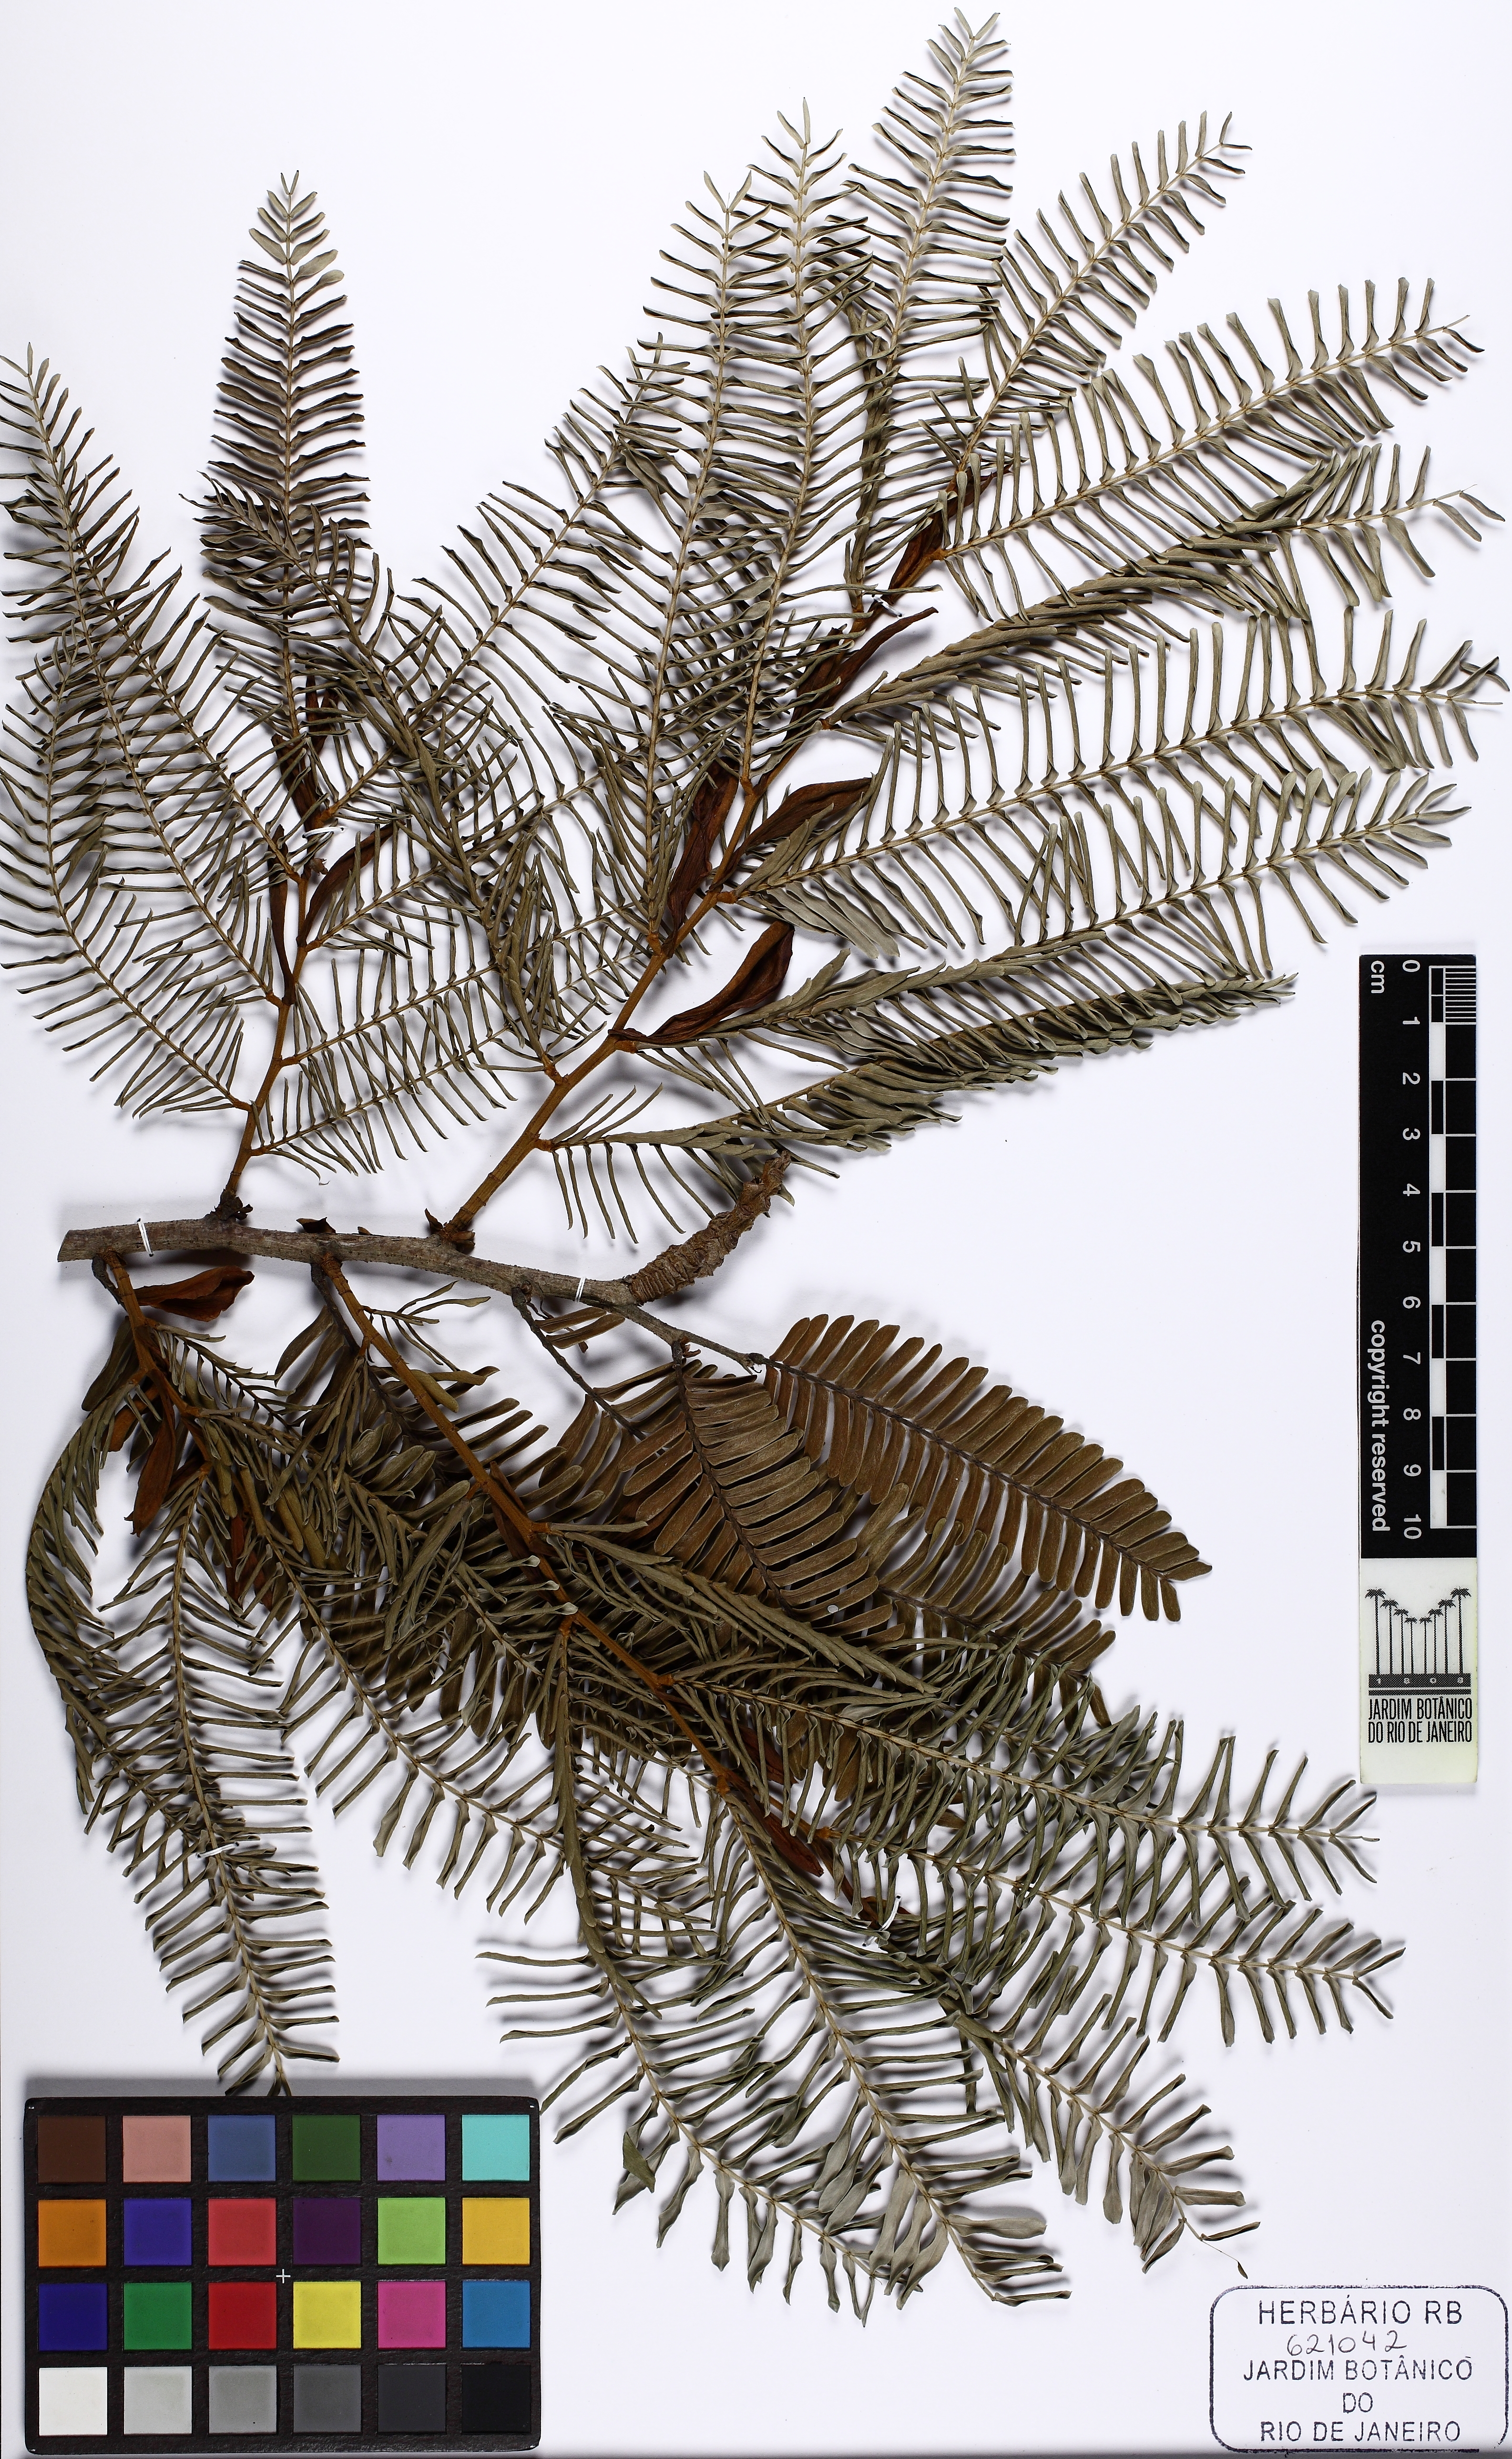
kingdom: Plantae
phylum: Tracheophyta
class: Magnoliopsida
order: Fabales
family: Fabaceae
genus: Paloue
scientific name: Paloue paraensis
